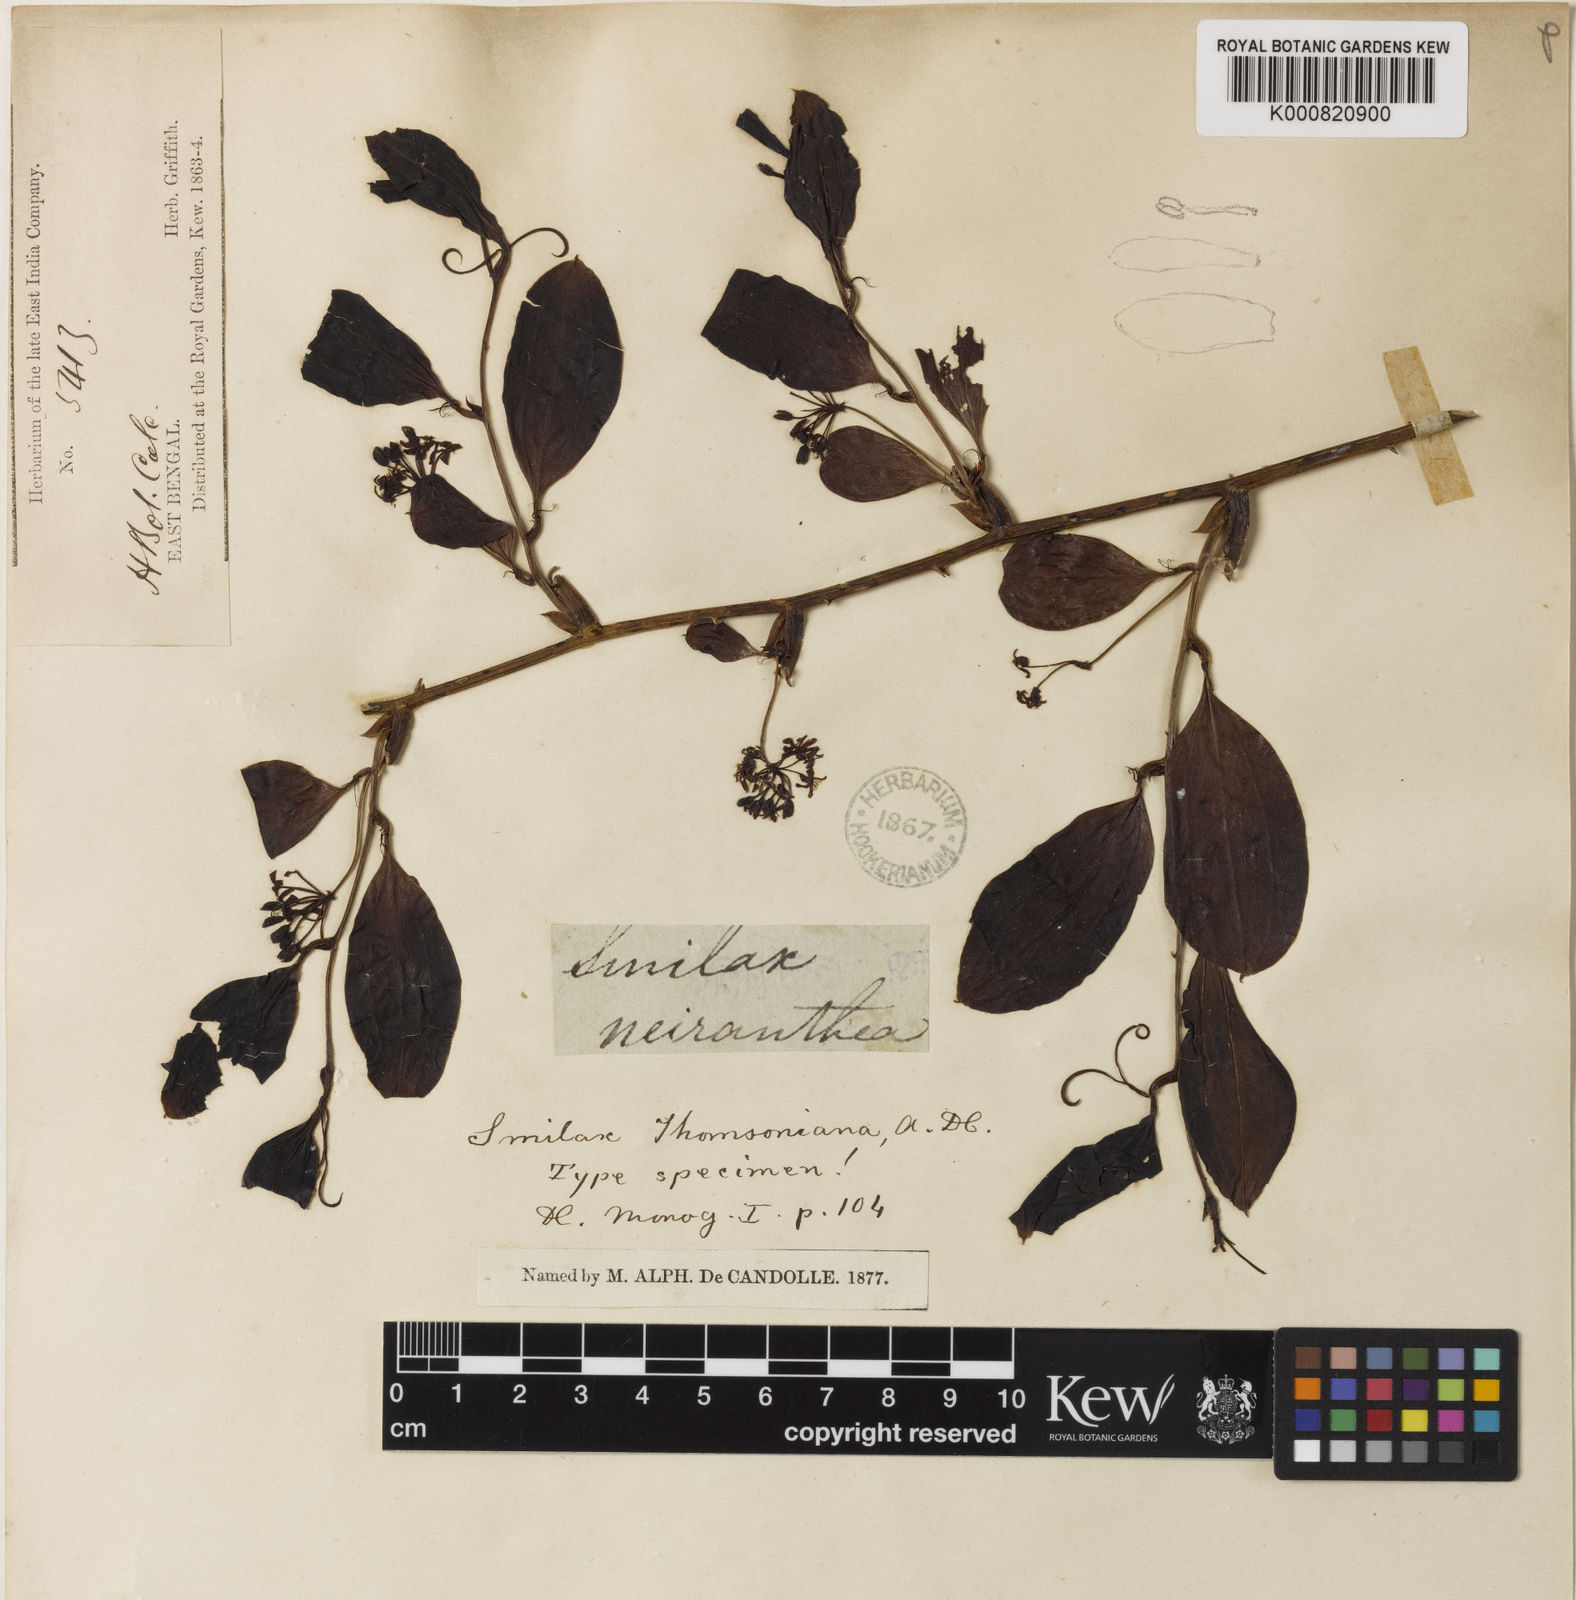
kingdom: Plantae
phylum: Tracheophyta
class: Liliopsida
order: Liliales
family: Smilacaceae
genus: Smilax
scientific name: Smilax ferox
